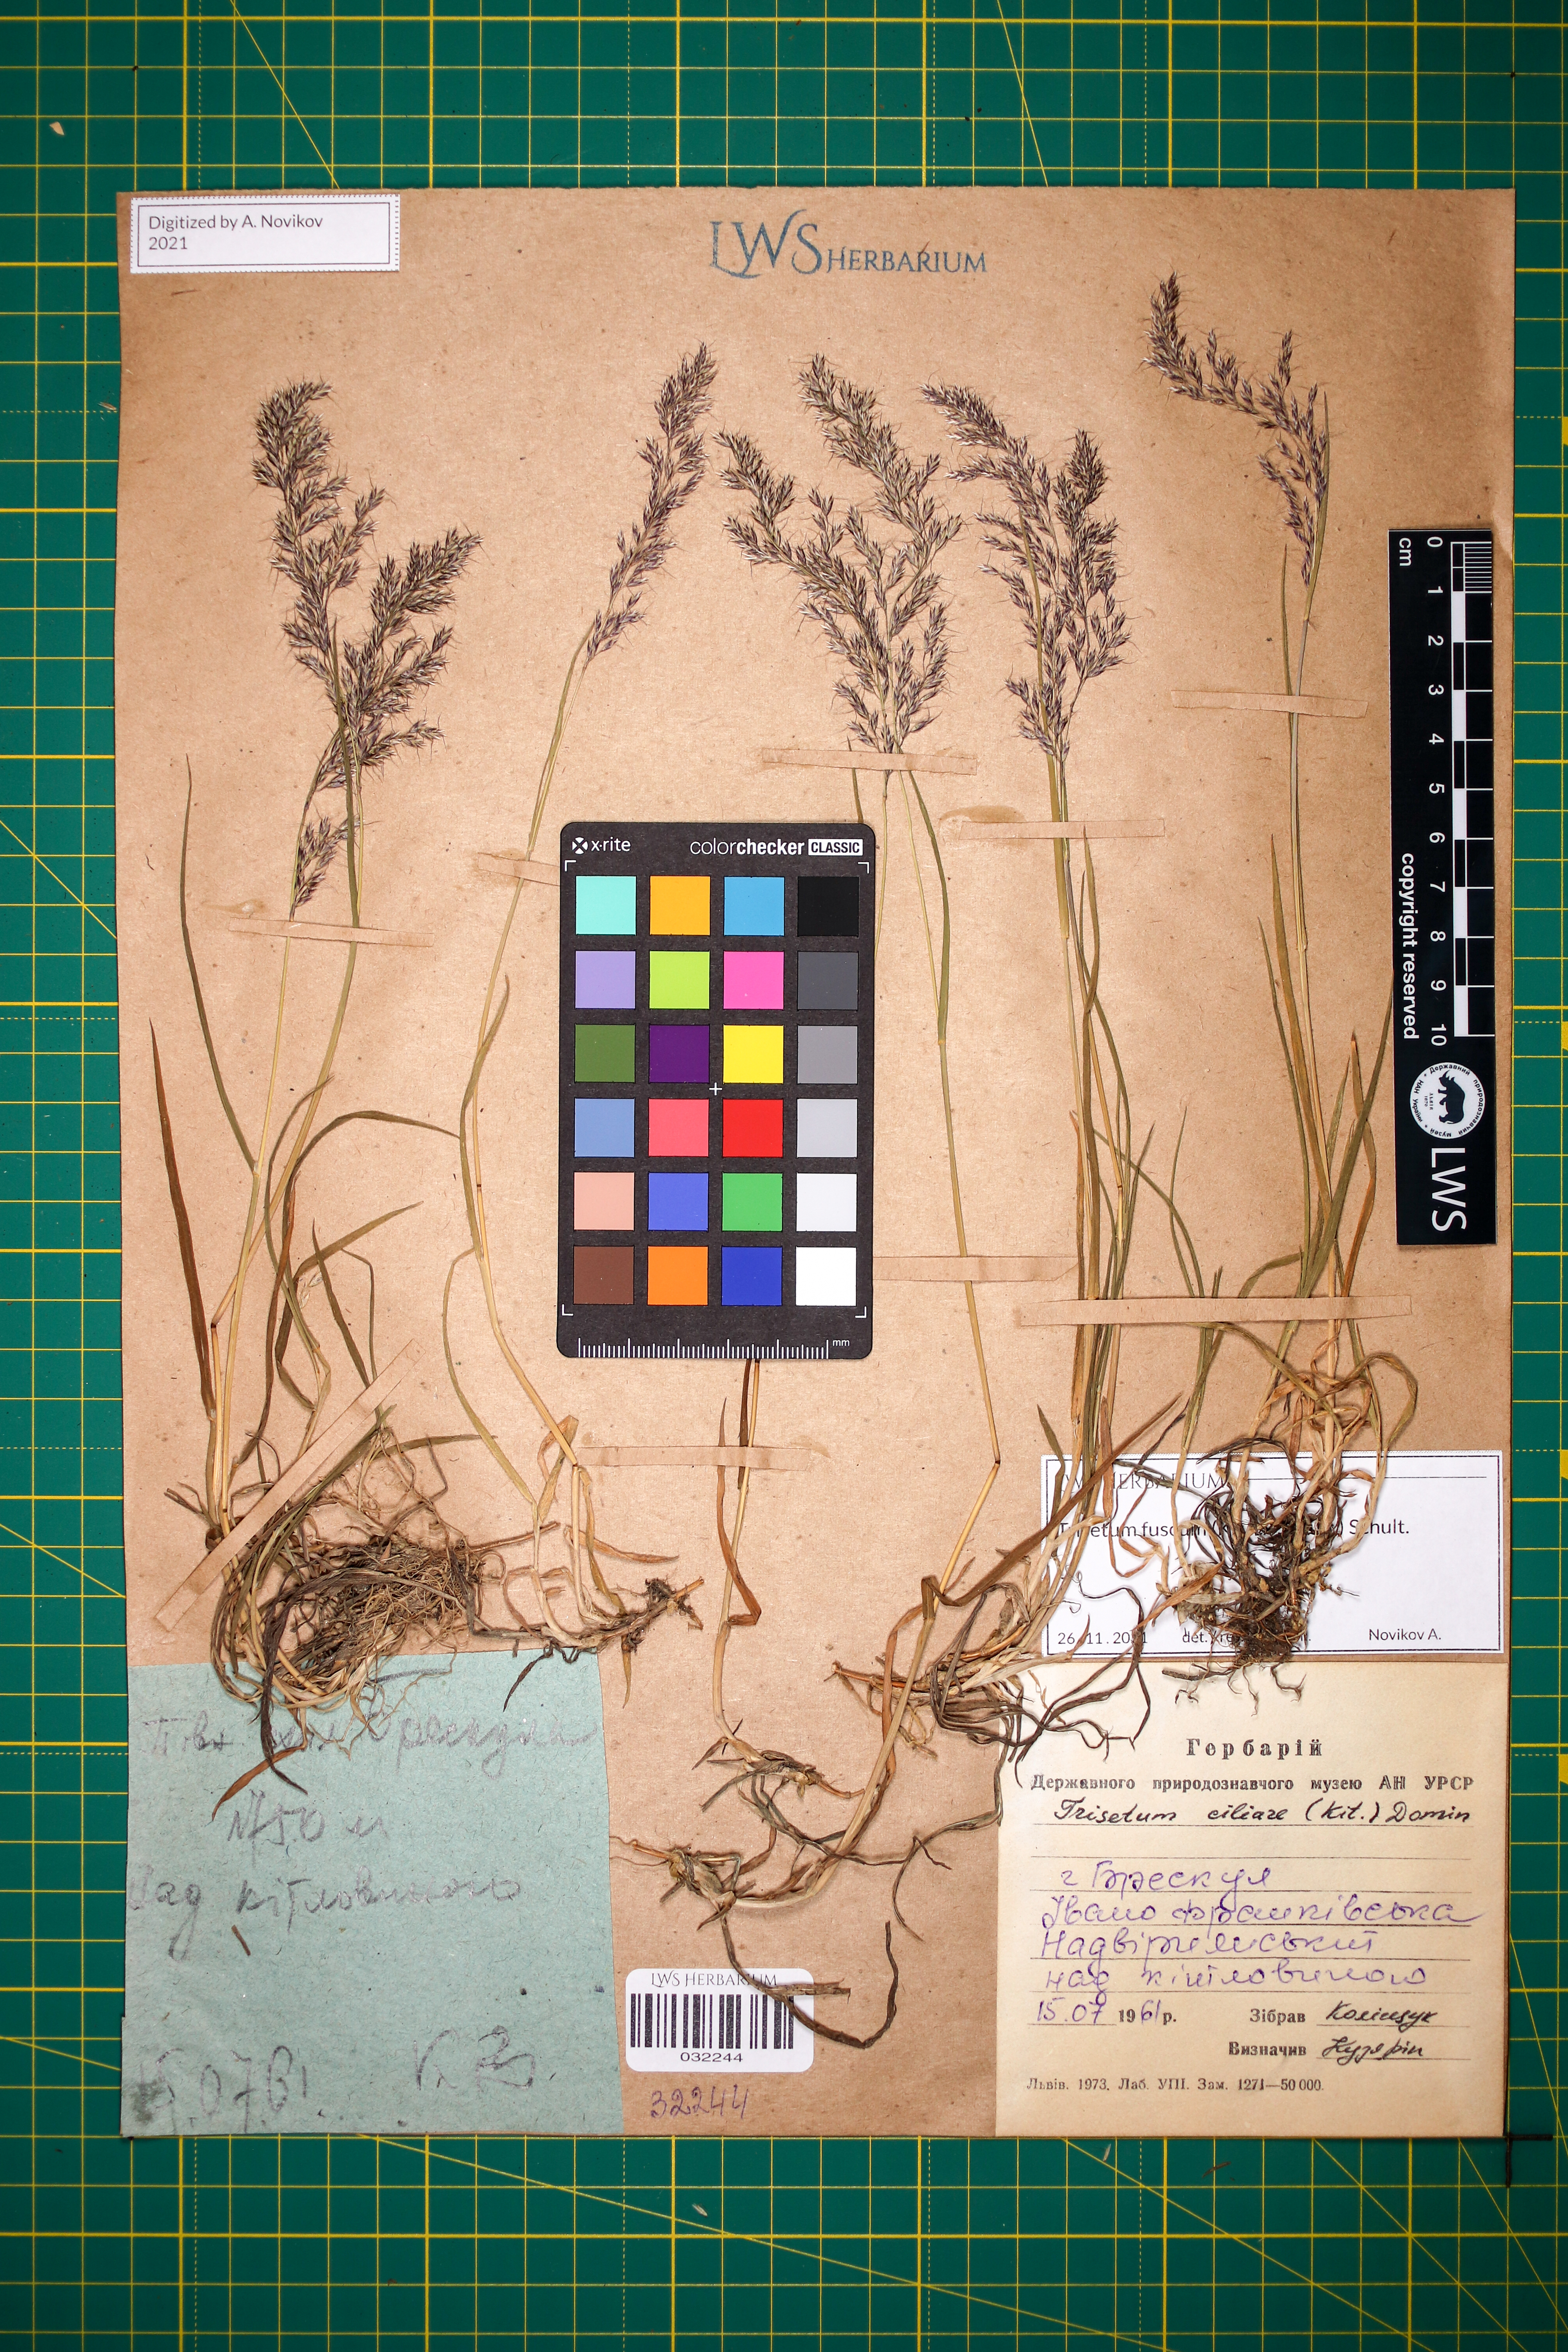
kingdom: Plantae
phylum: Tracheophyta
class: Liliopsida
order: Poales
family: Poaceae
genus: Trisetum
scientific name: Trisetum fuscum
